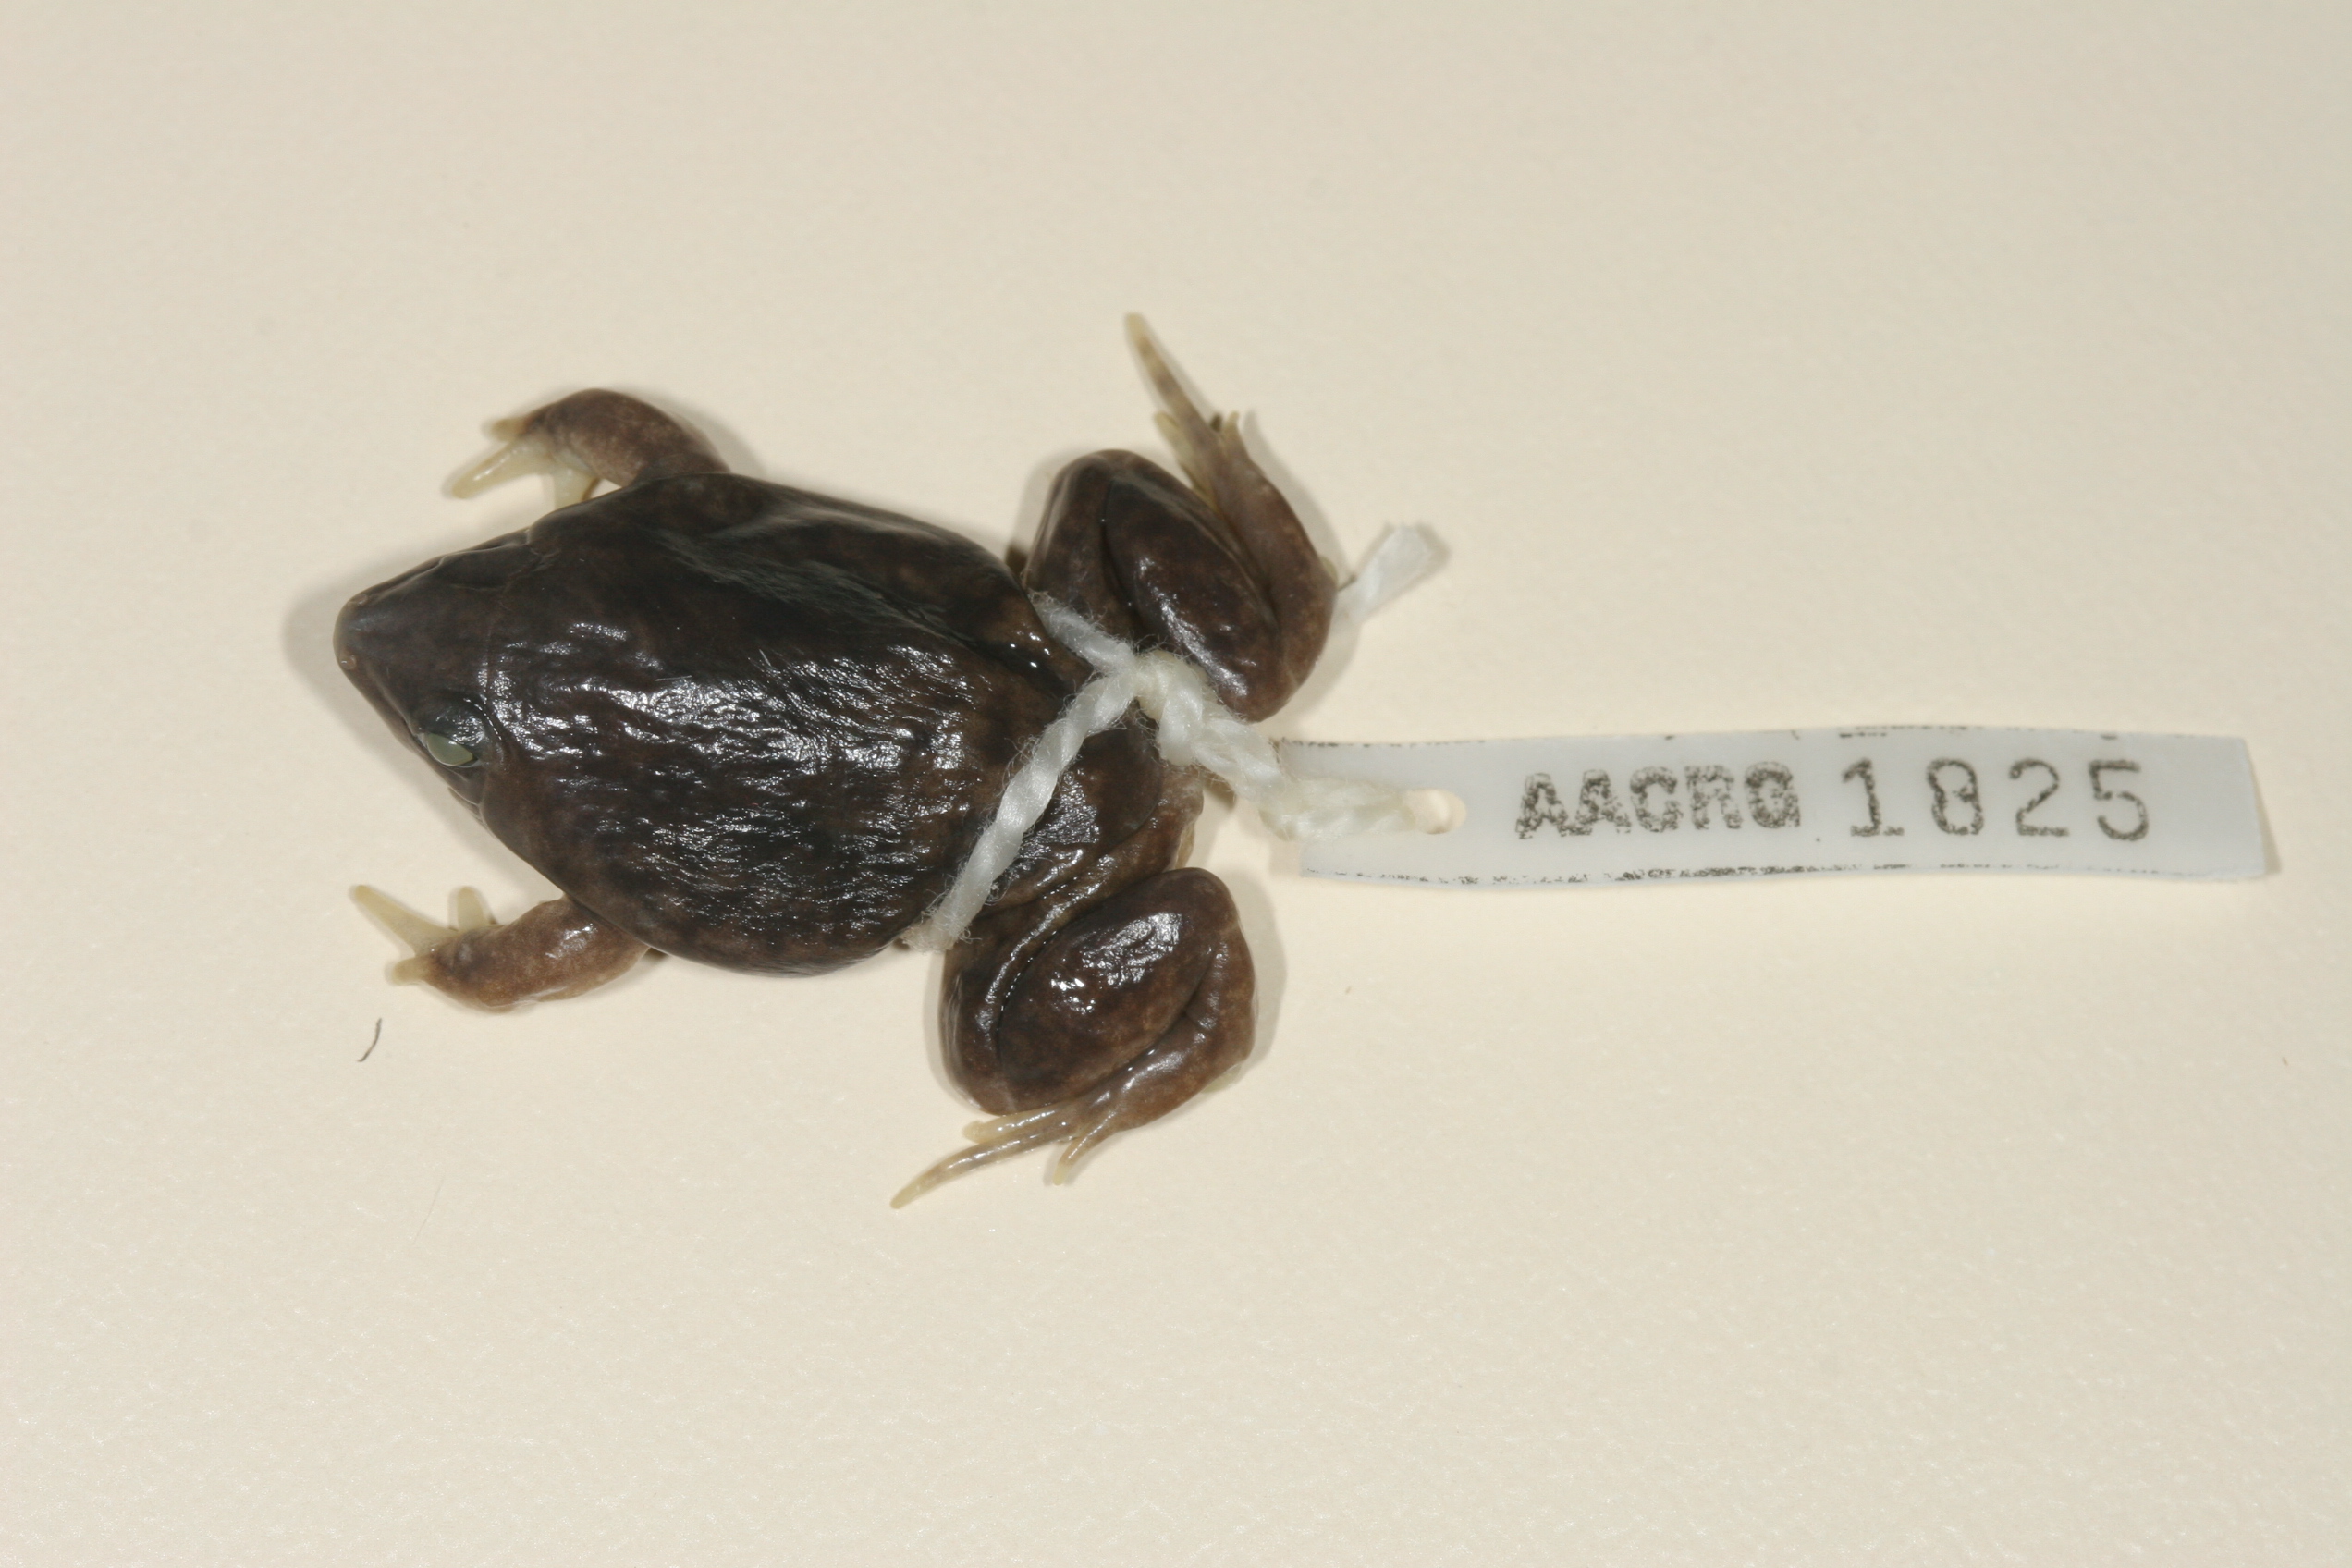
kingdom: Animalia
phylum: Chordata
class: Amphibia
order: Anura
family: Hemisotidae
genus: Hemisus
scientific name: Hemisus marmoratus
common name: Mottled shovel-nosed frog
